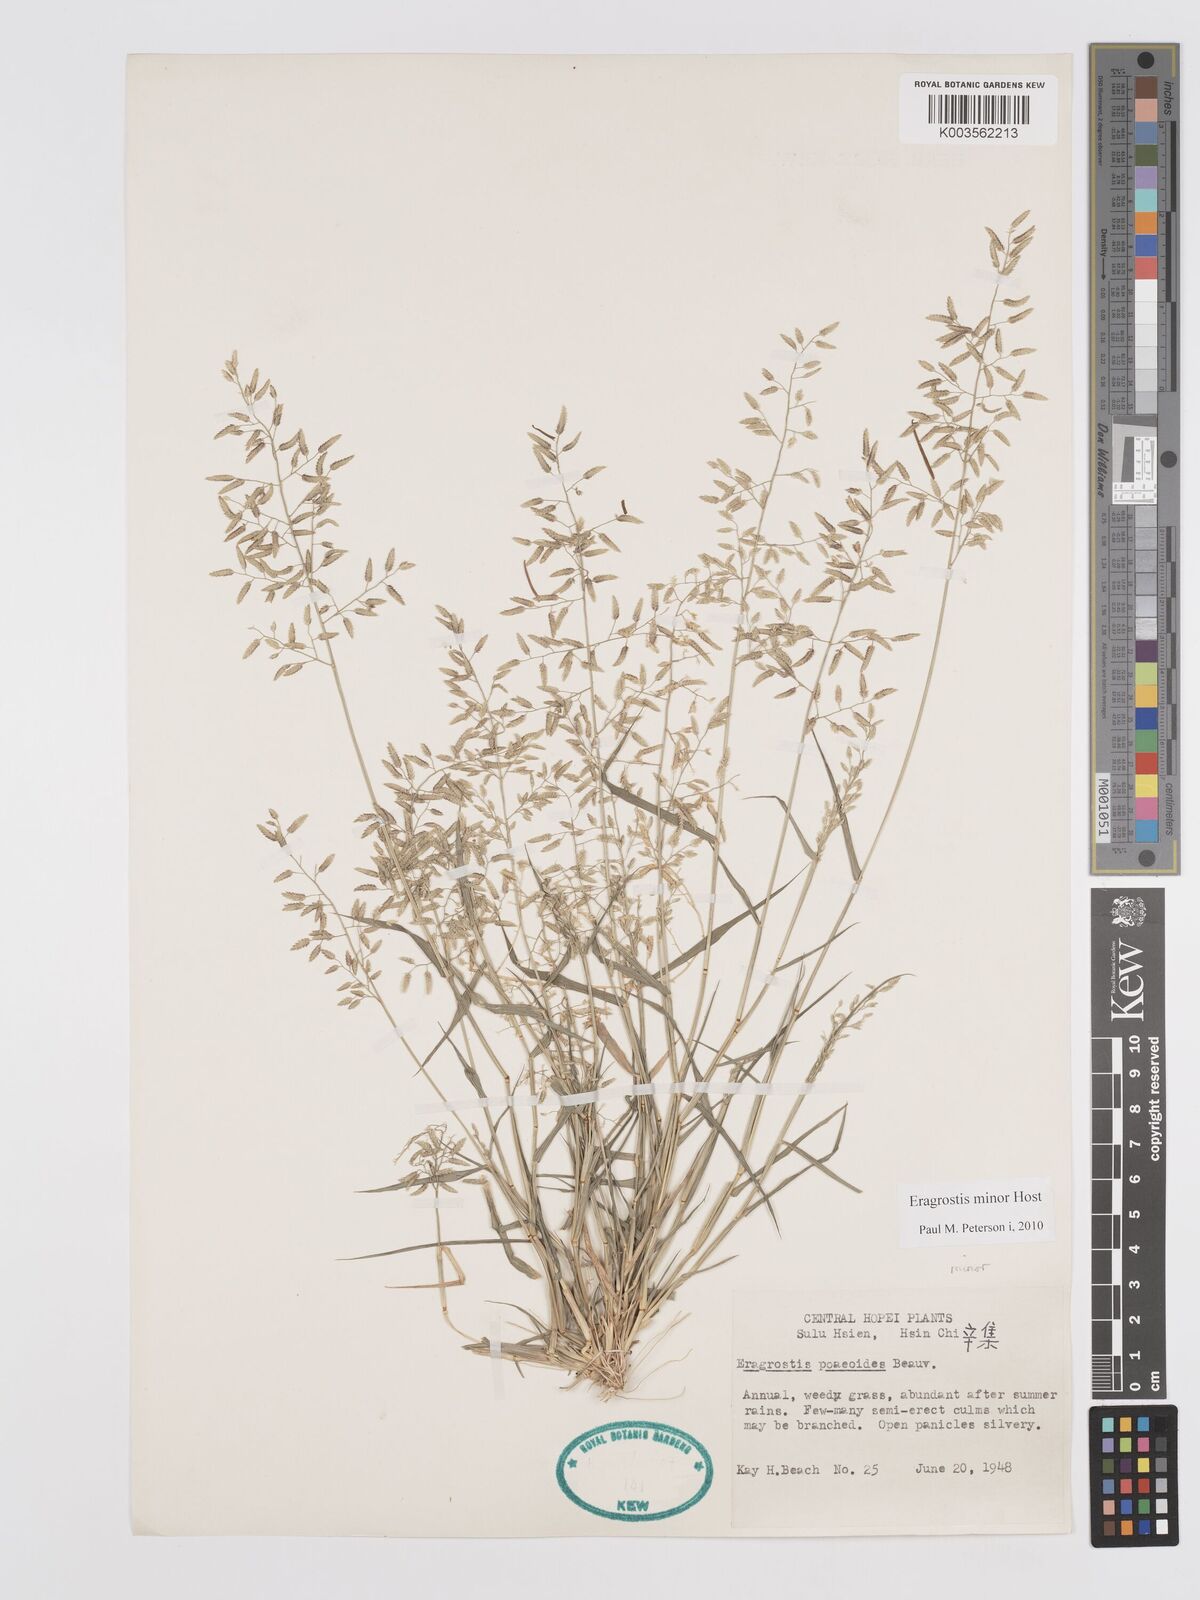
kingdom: Plantae
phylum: Tracheophyta
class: Liliopsida
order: Poales
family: Poaceae
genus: Eragrostis
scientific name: Eragrostis minor
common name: Small love-grass
